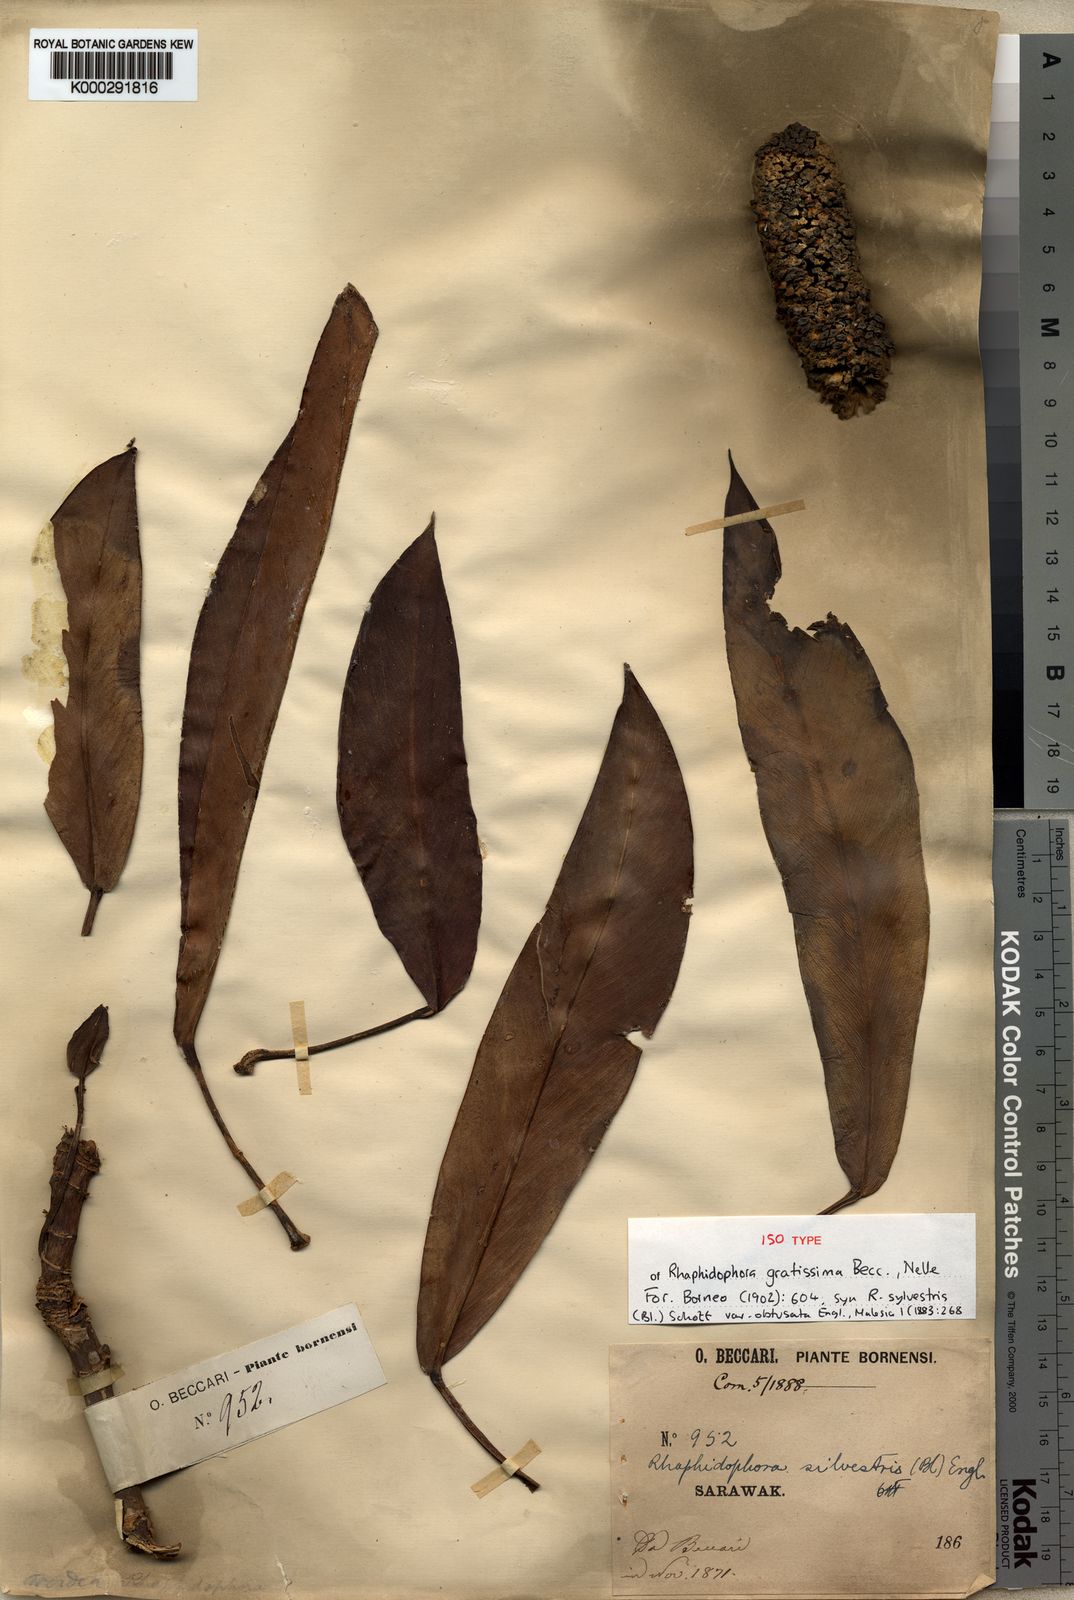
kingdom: Plantae
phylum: Tracheophyta
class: Liliopsida
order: Alismatales
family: Araceae
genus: Rhaphidophora
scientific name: Rhaphidophora sylvestris
